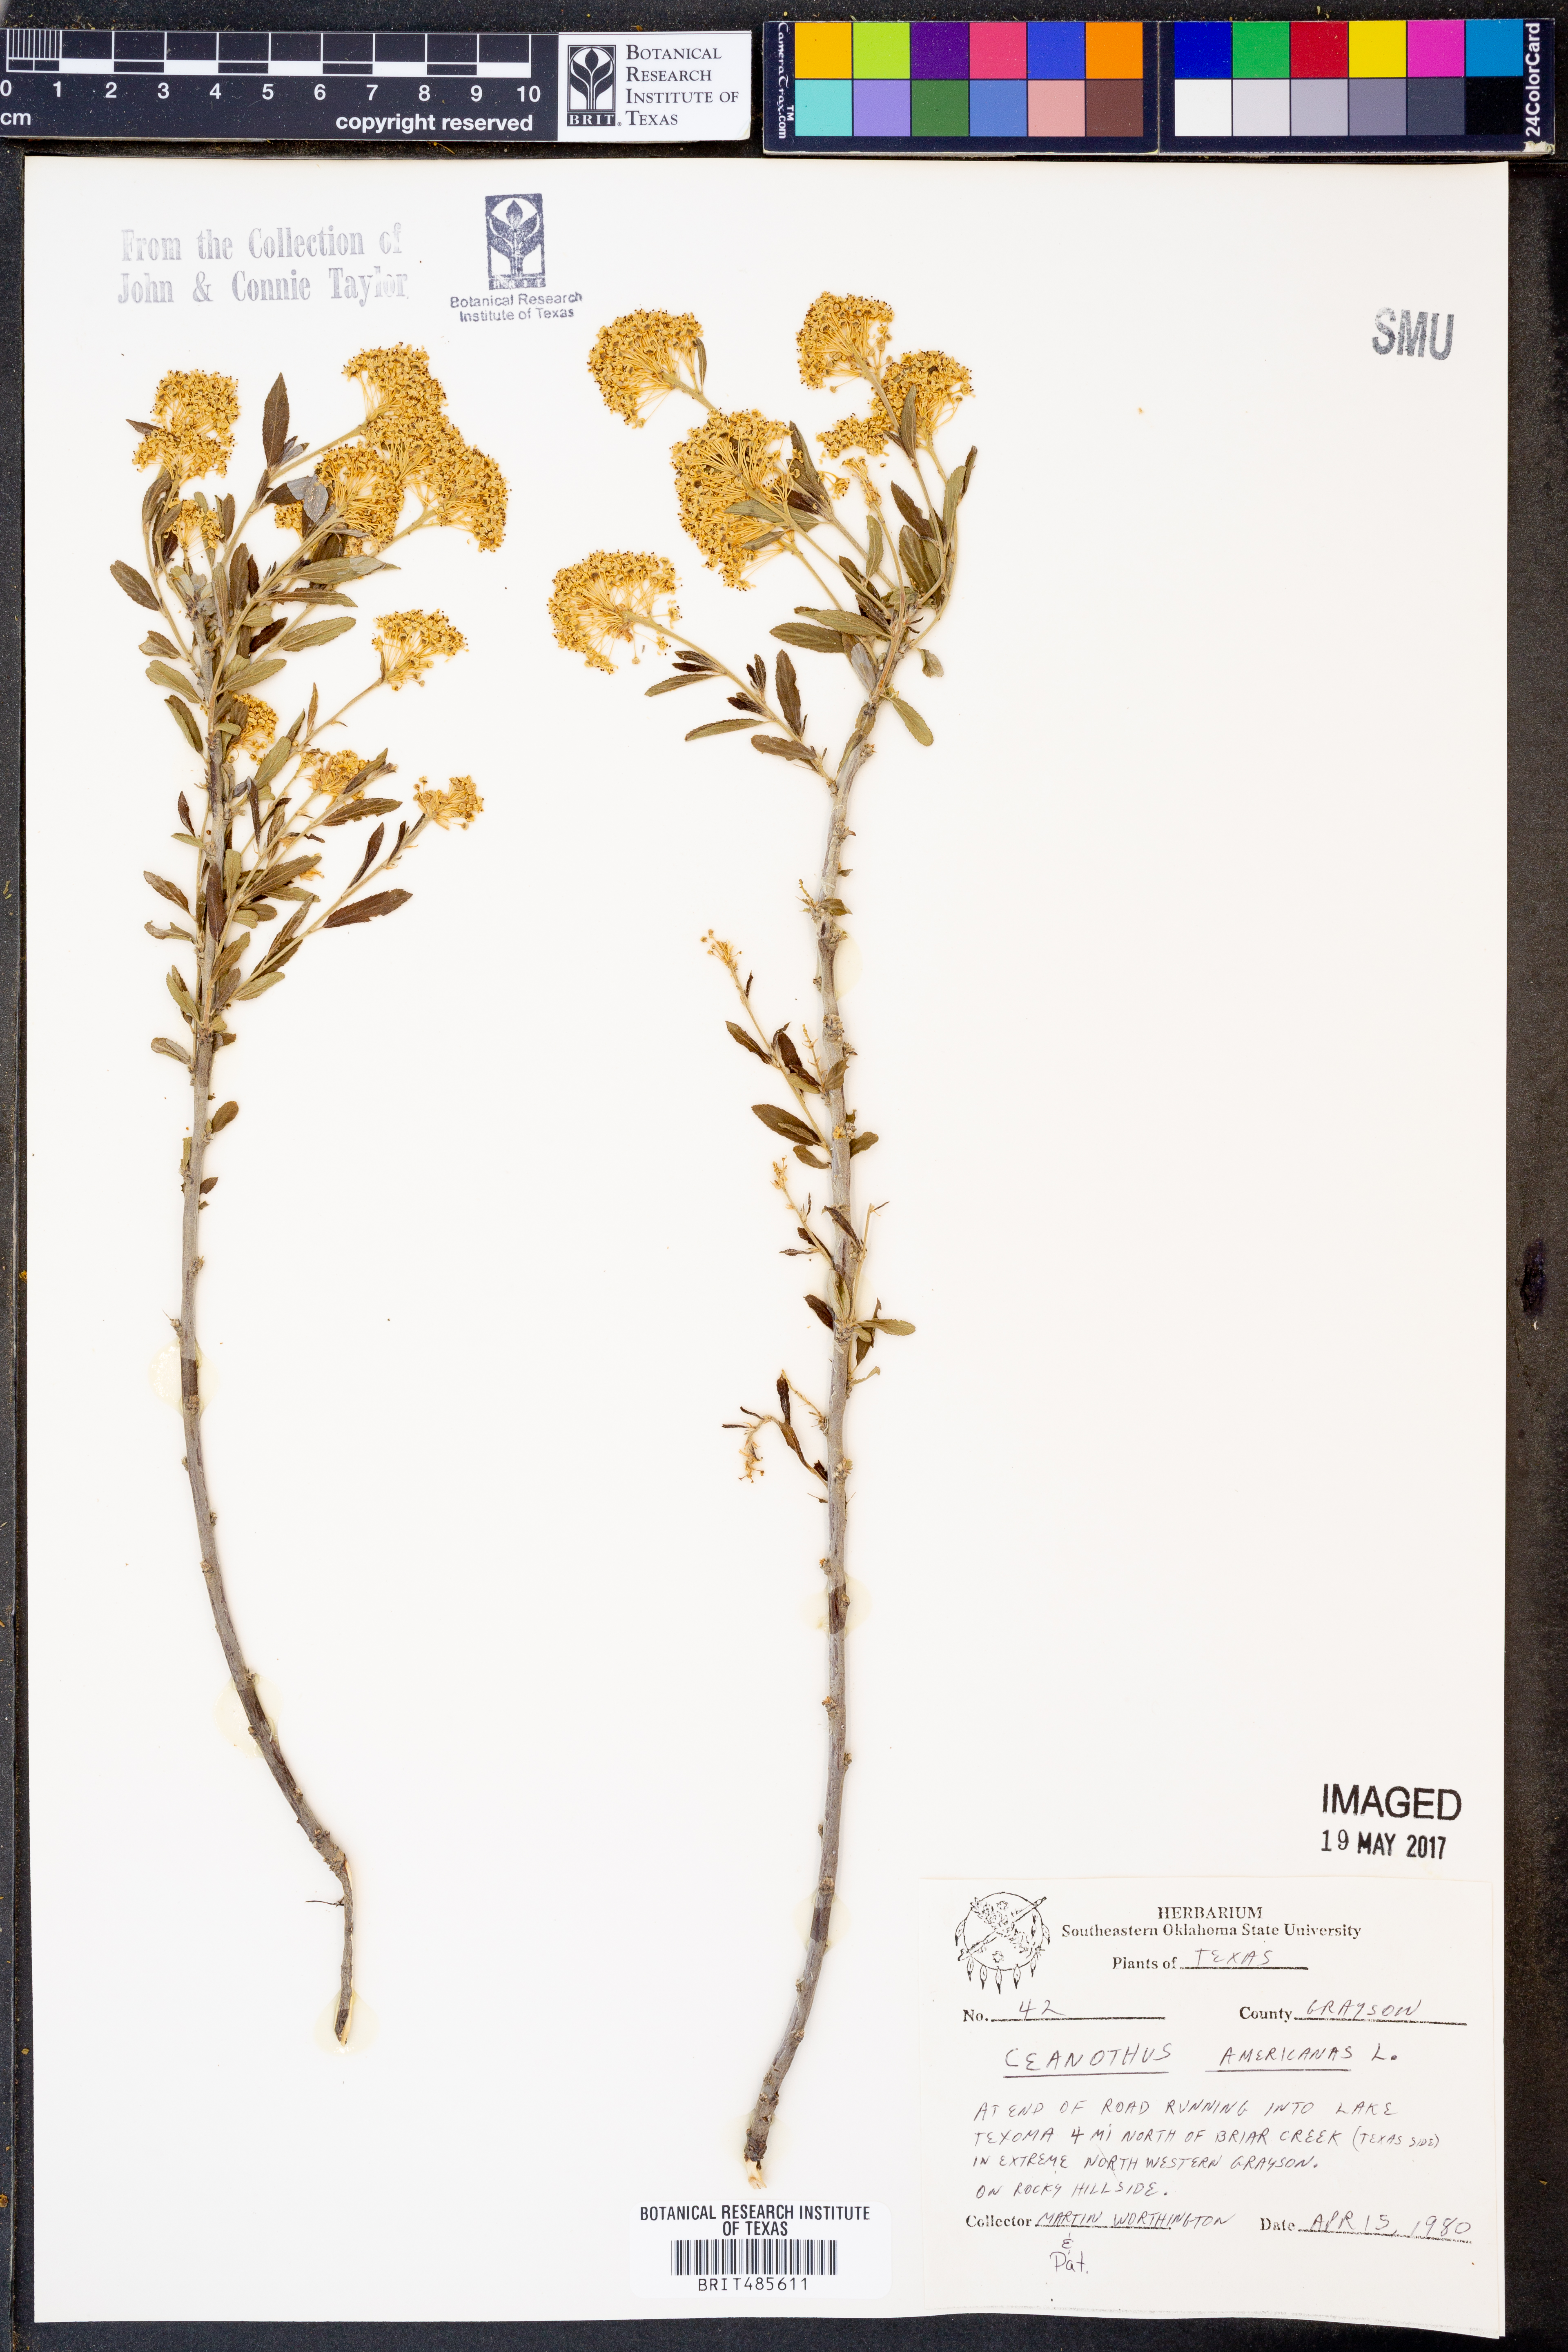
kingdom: Plantae
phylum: Tracheophyta
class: Magnoliopsida
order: Rosales
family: Rhamnaceae
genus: Ceanothus
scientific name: Ceanothus americanus
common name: Redroot
